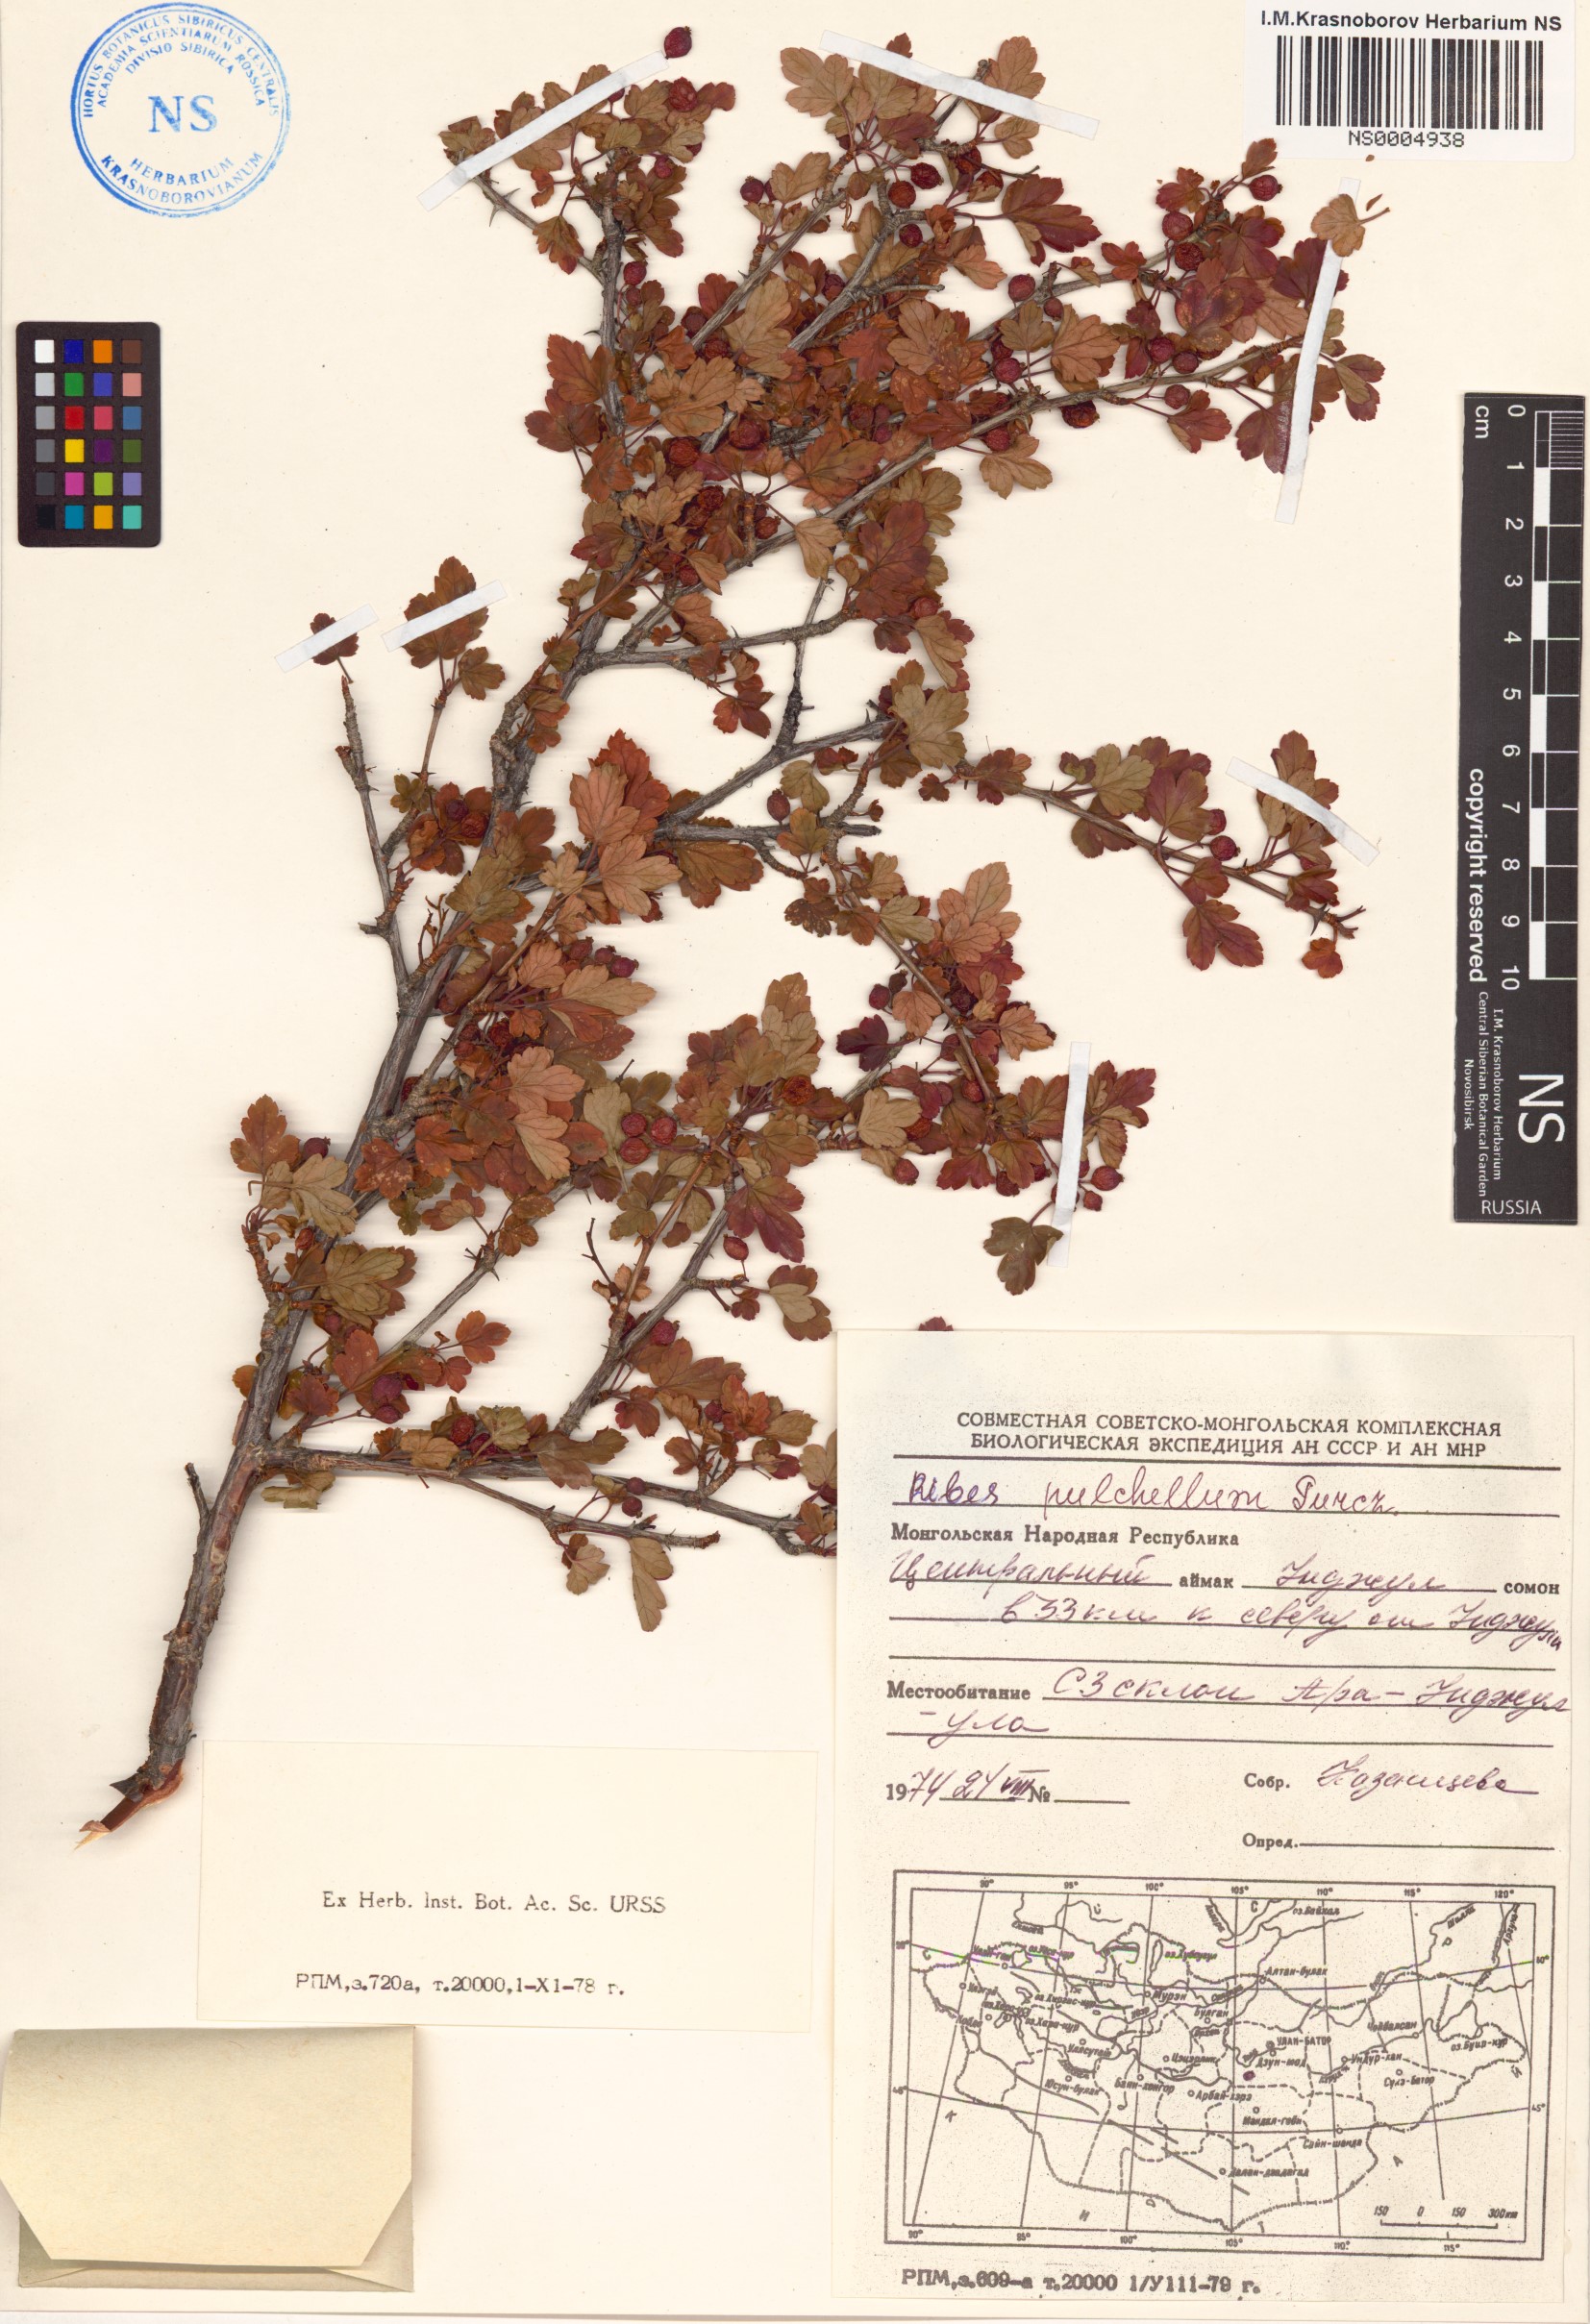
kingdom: Plantae
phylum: Tracheophyta
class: Magnoliopsida
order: Saxifragales
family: Grossulariaceae
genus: Ribes
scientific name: Ribes pulchellum
